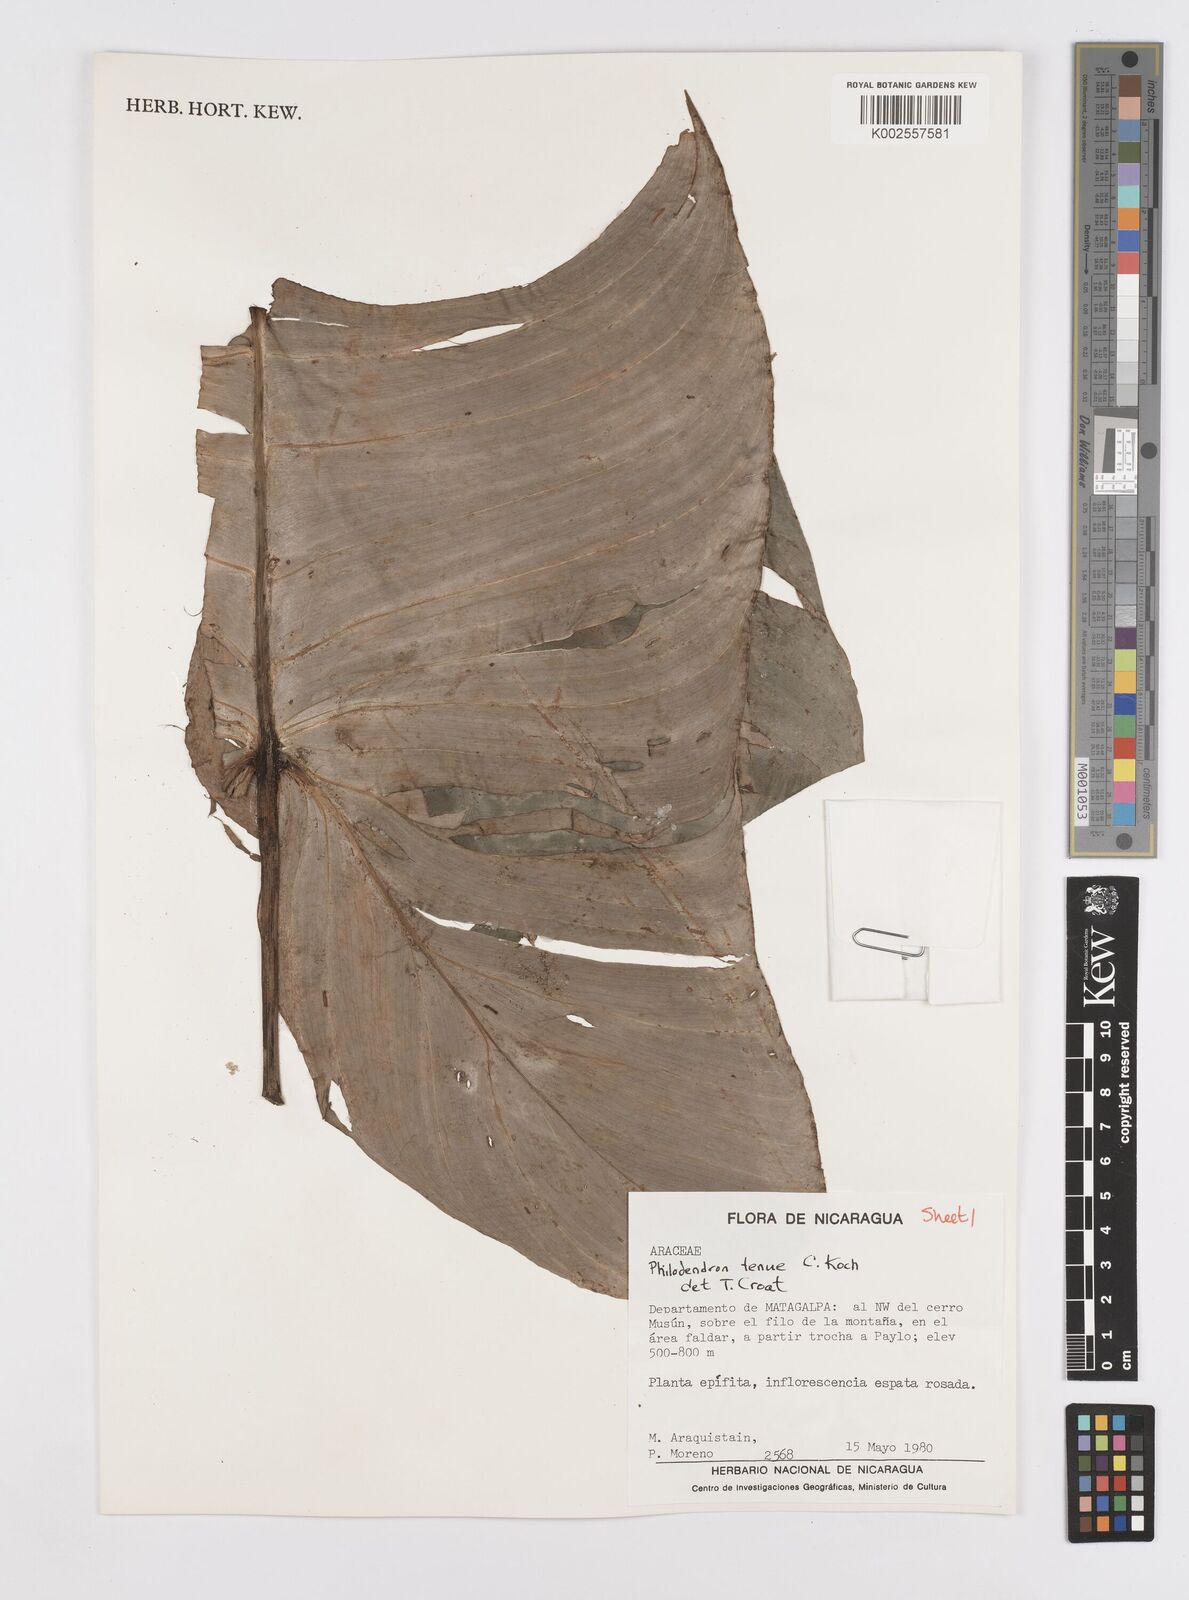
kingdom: Plantae
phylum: Tracheophyta
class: Liliopsida
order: Alismatales
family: Araceae
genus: Philodendron
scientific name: Philodendron tenue
